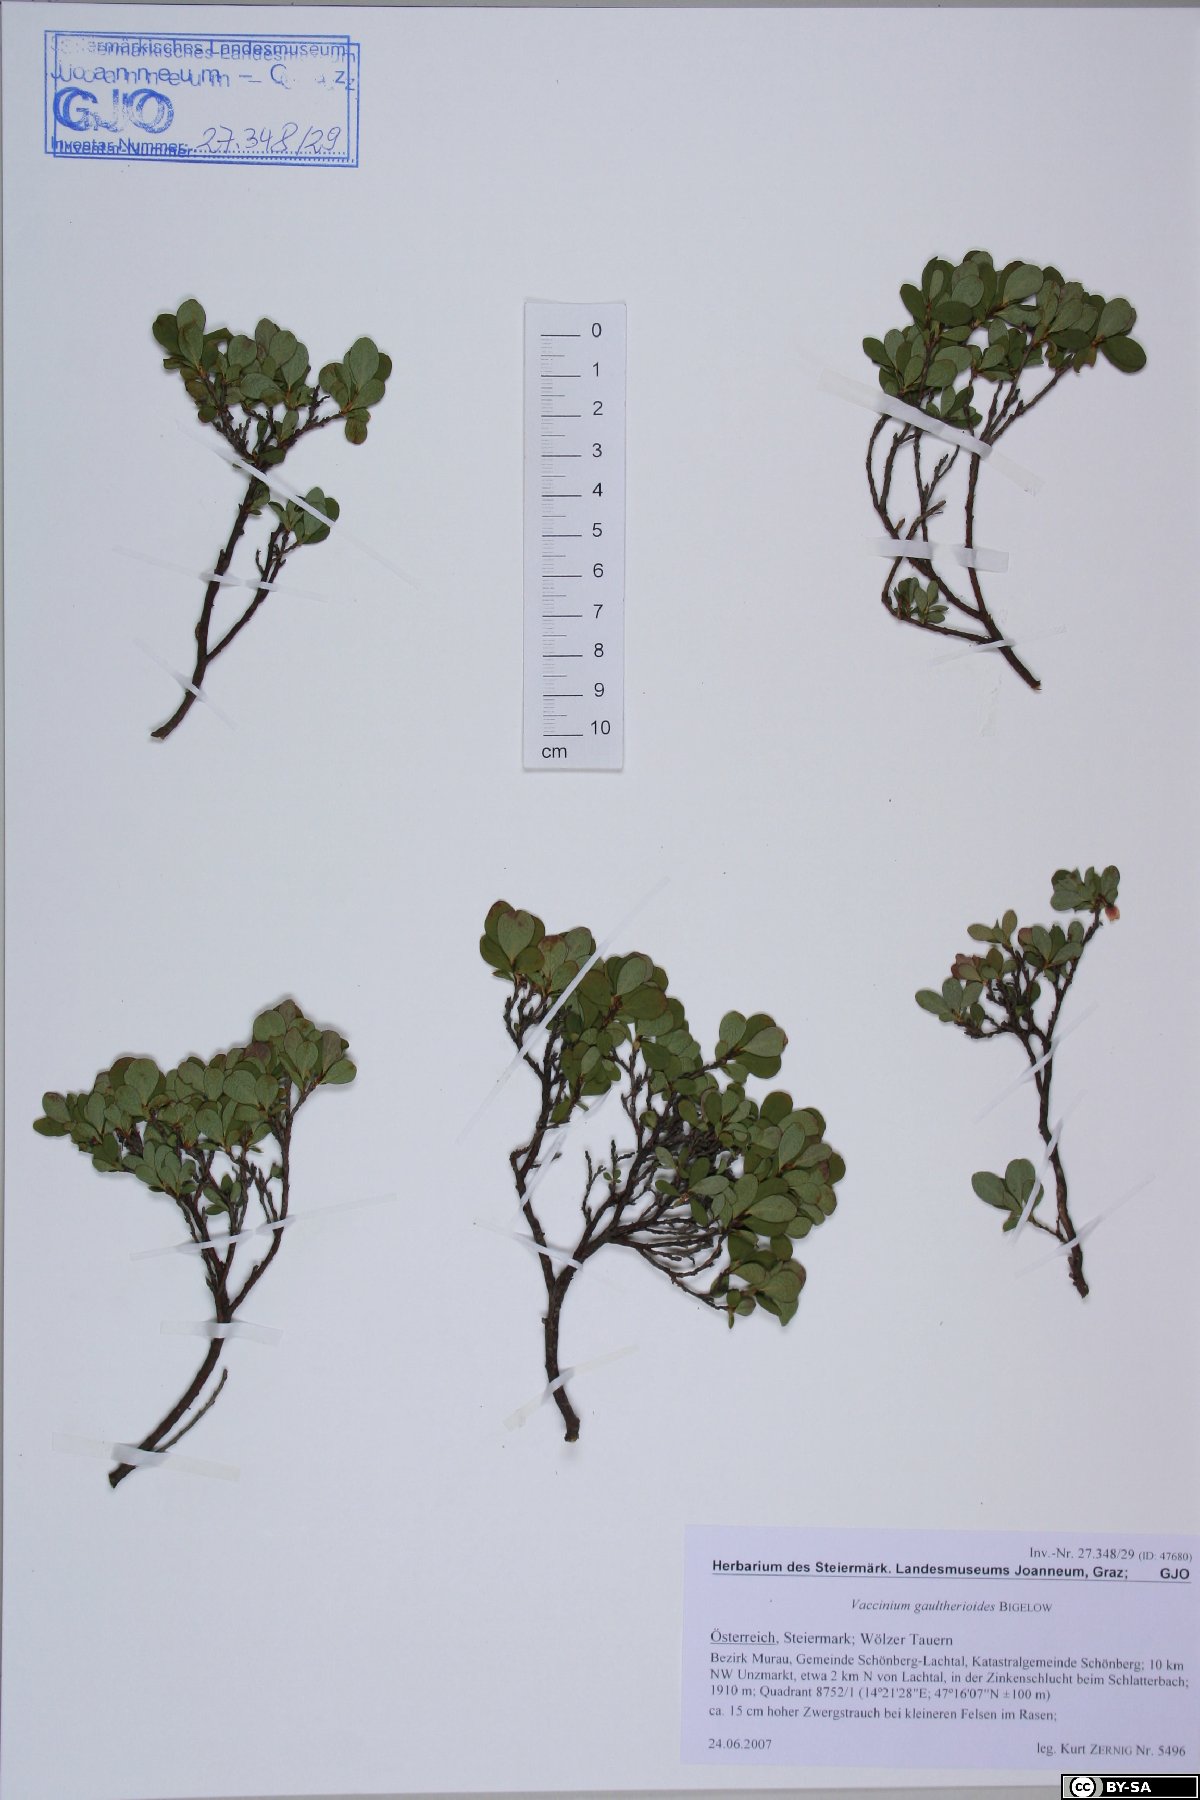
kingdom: Plantae
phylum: Tracheophyta
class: Magnoliopsida
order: Ericales
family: Ericaceae
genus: Vaccinium
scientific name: Vaccinium gaultherioides
